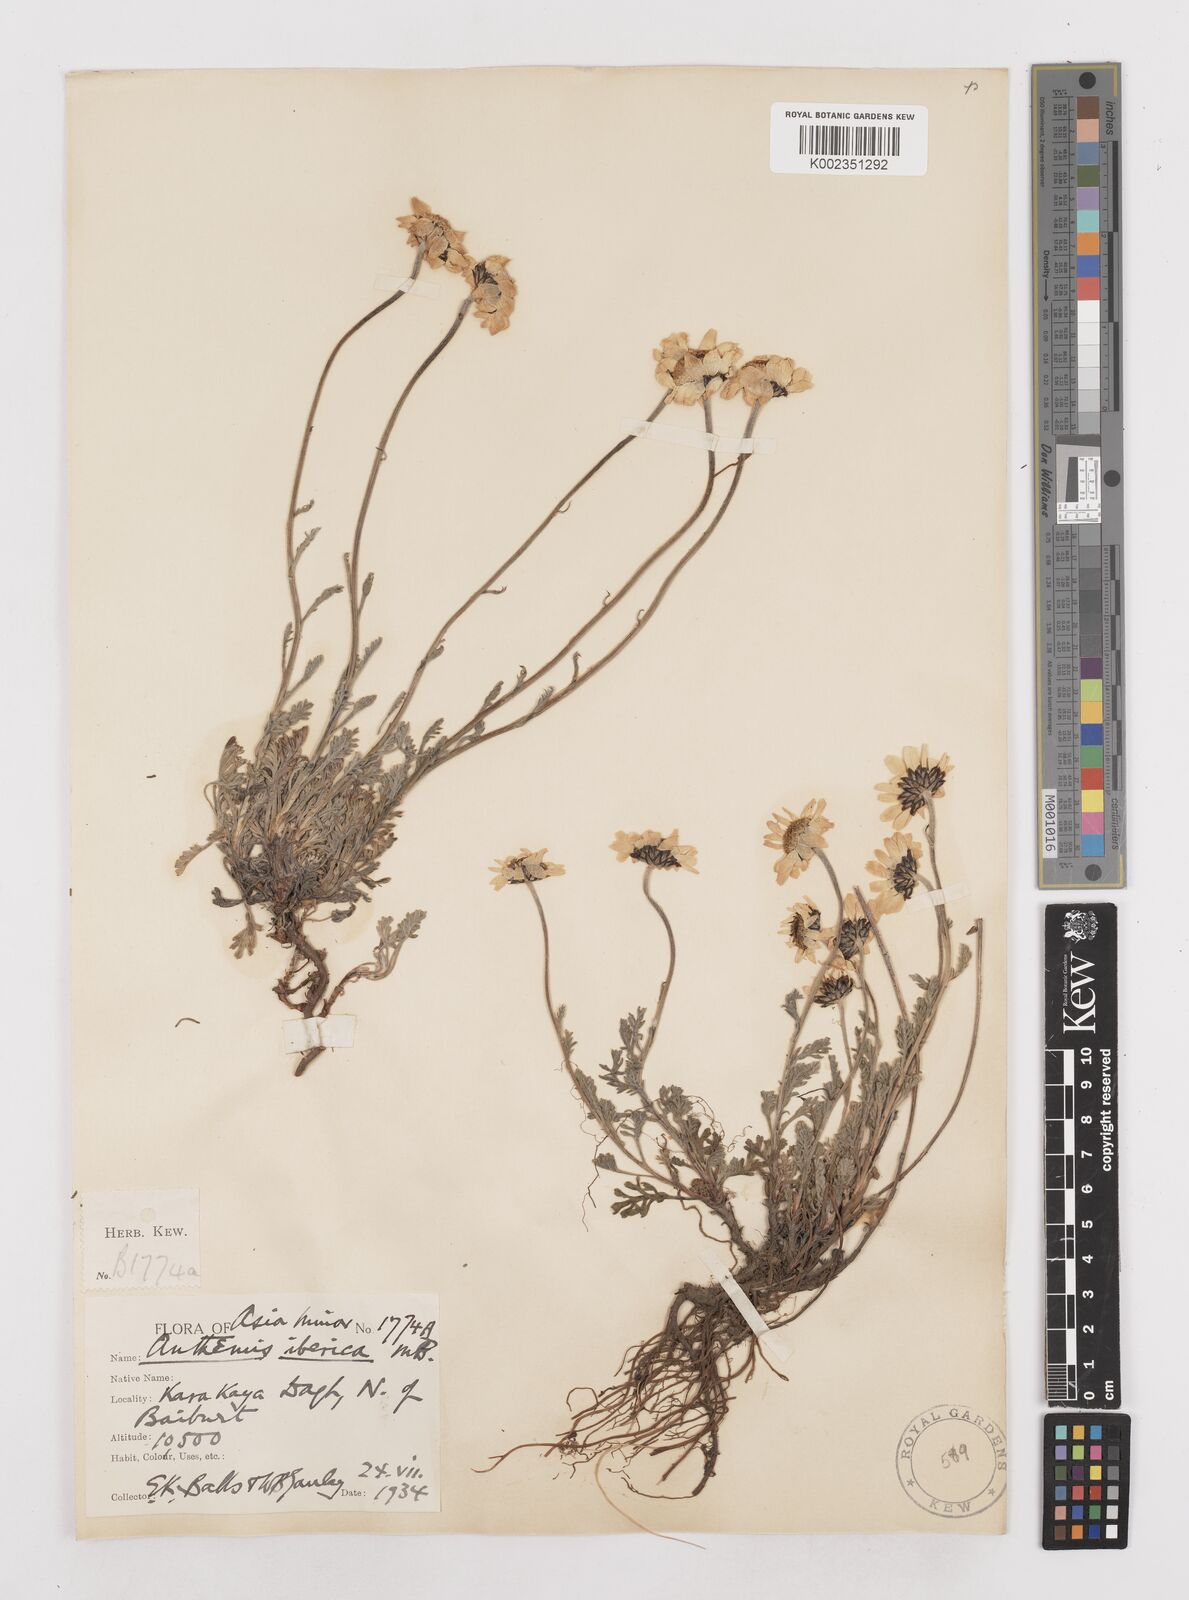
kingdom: Plantae
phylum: Tracheophyta
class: Magnoliopsida
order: Asterales
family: Asteraceae
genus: Anthemis
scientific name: Anthemis cretica
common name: Mountain dog-daisy
